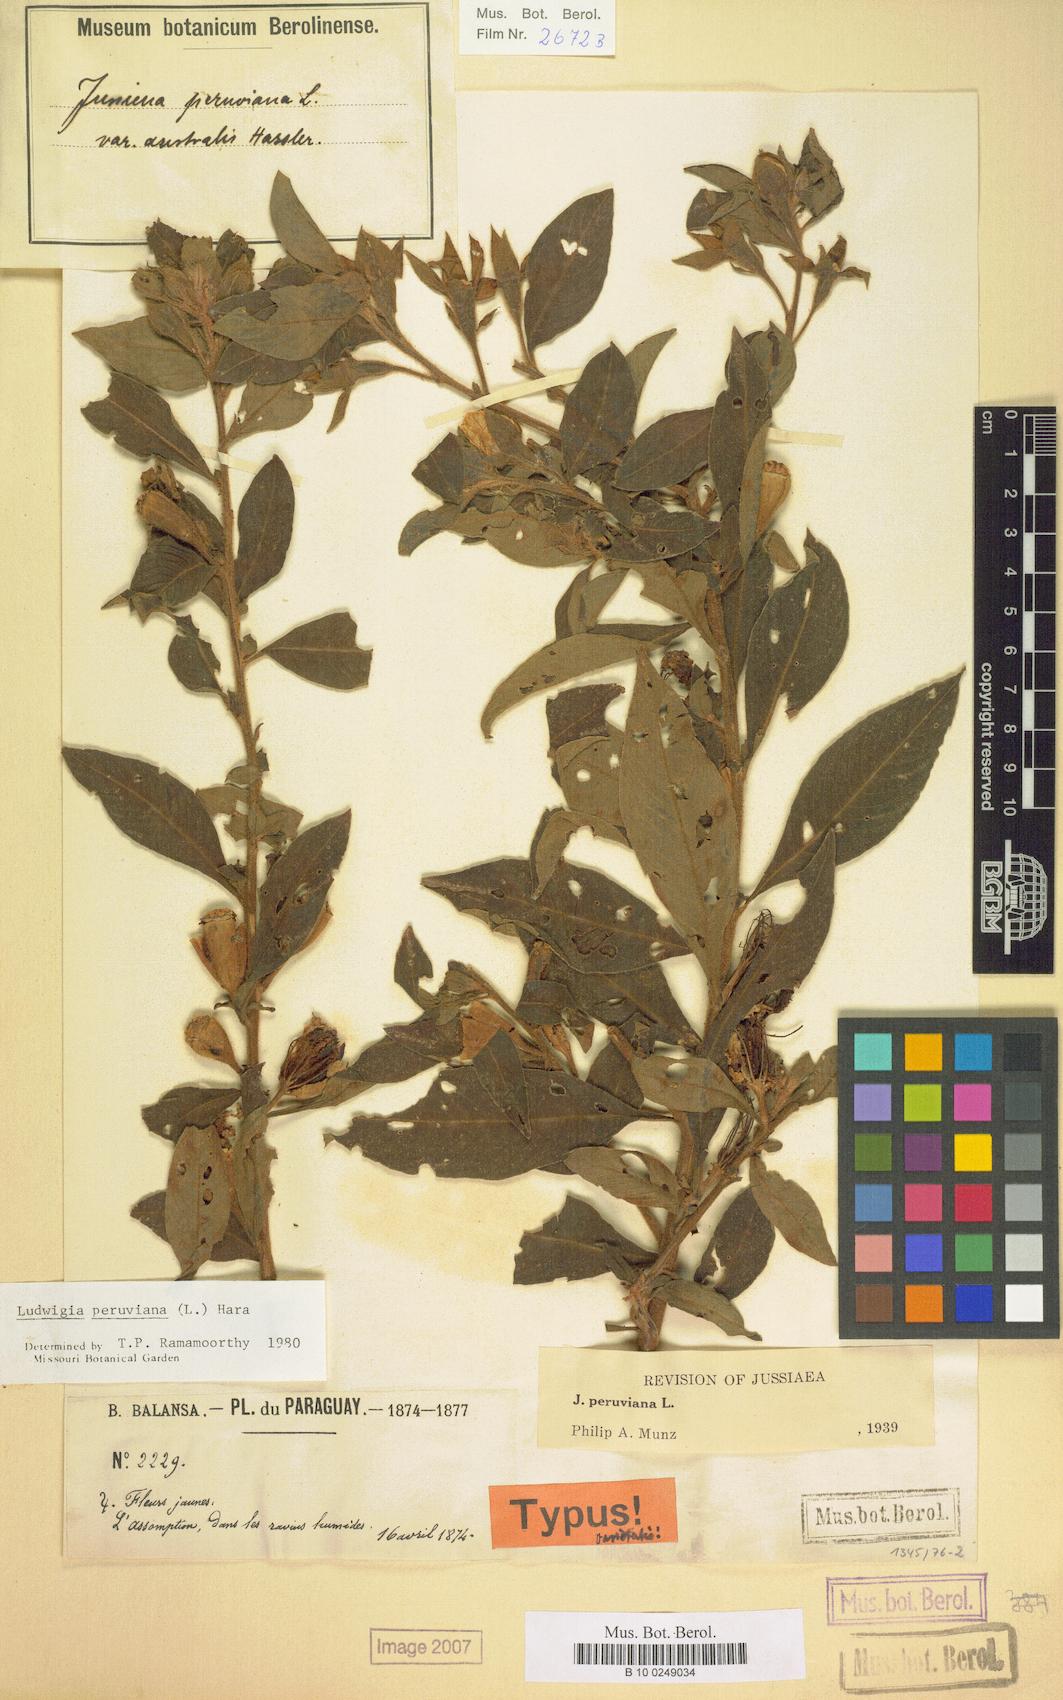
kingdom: Plantae
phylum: Tracheophyta
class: Magnoliopsida
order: Myrtales
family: Onagraceae
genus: Ludwigia
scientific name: Ludwigia peruviana
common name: Peruvian primrose-willow
